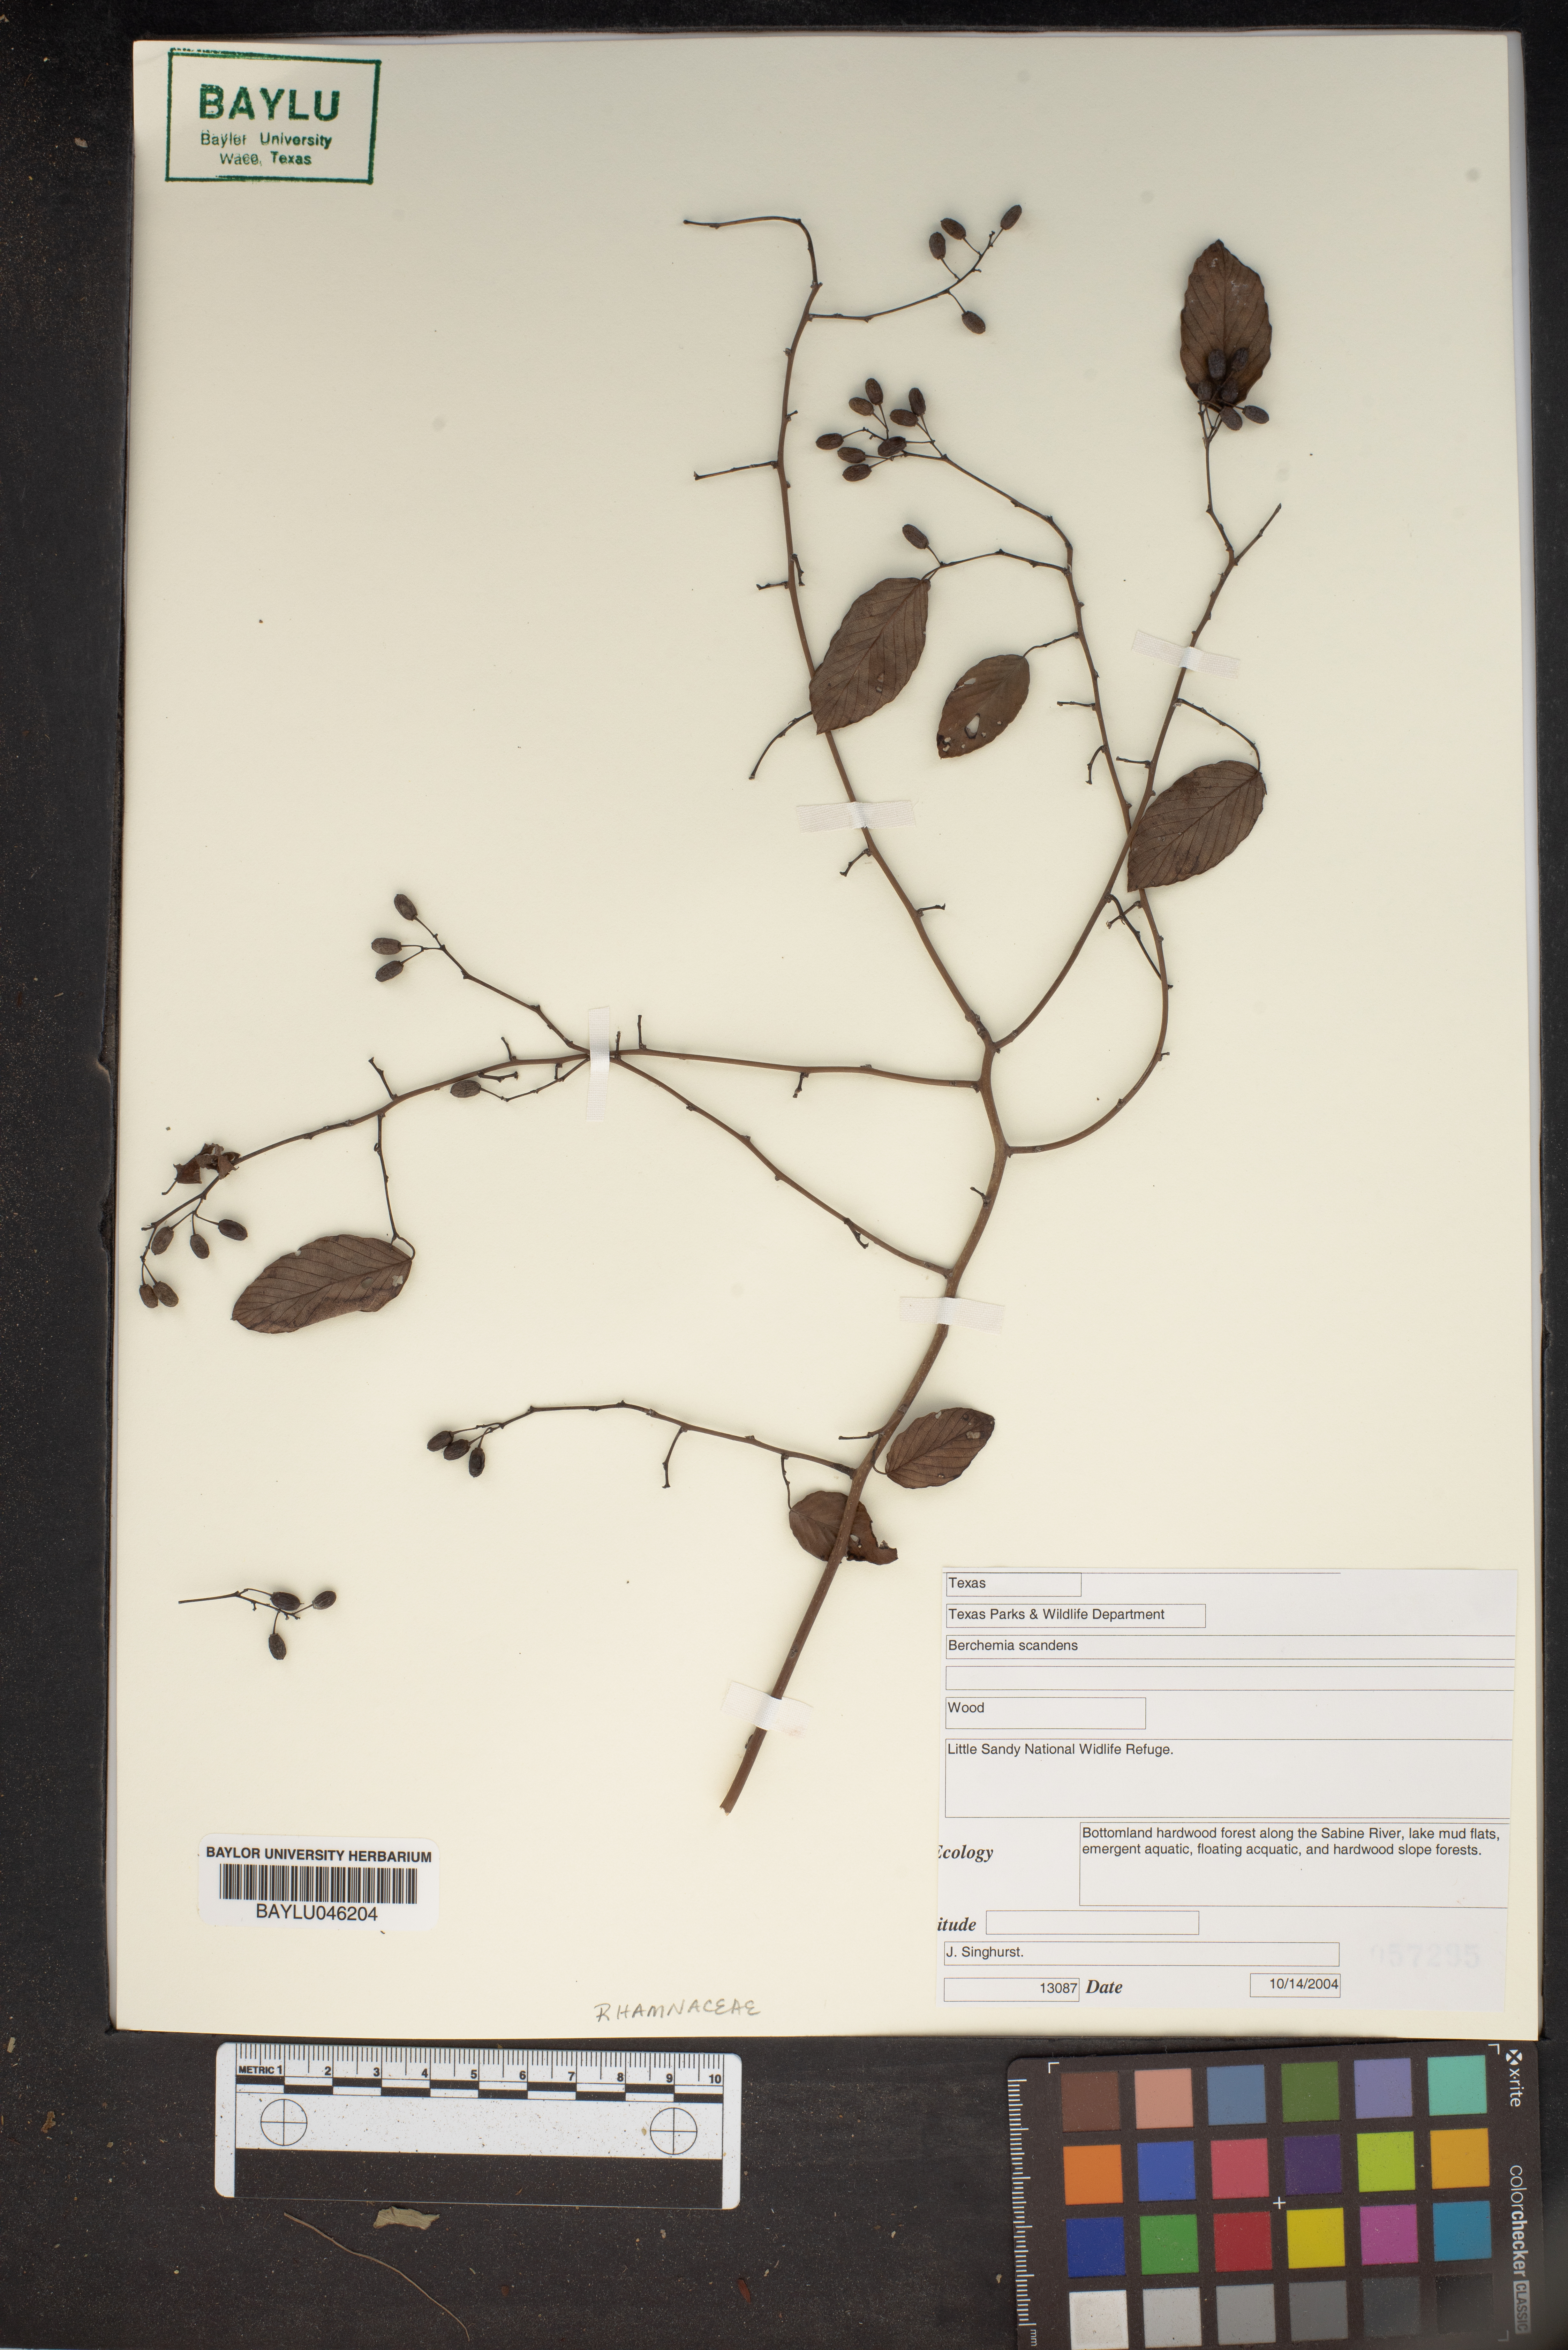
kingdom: Plantae
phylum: Tracheophyta
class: Magnoliopsida
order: Rosales
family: Rhamnaceae
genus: Berchemia
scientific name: Berchemia scandens
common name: Supplejack
